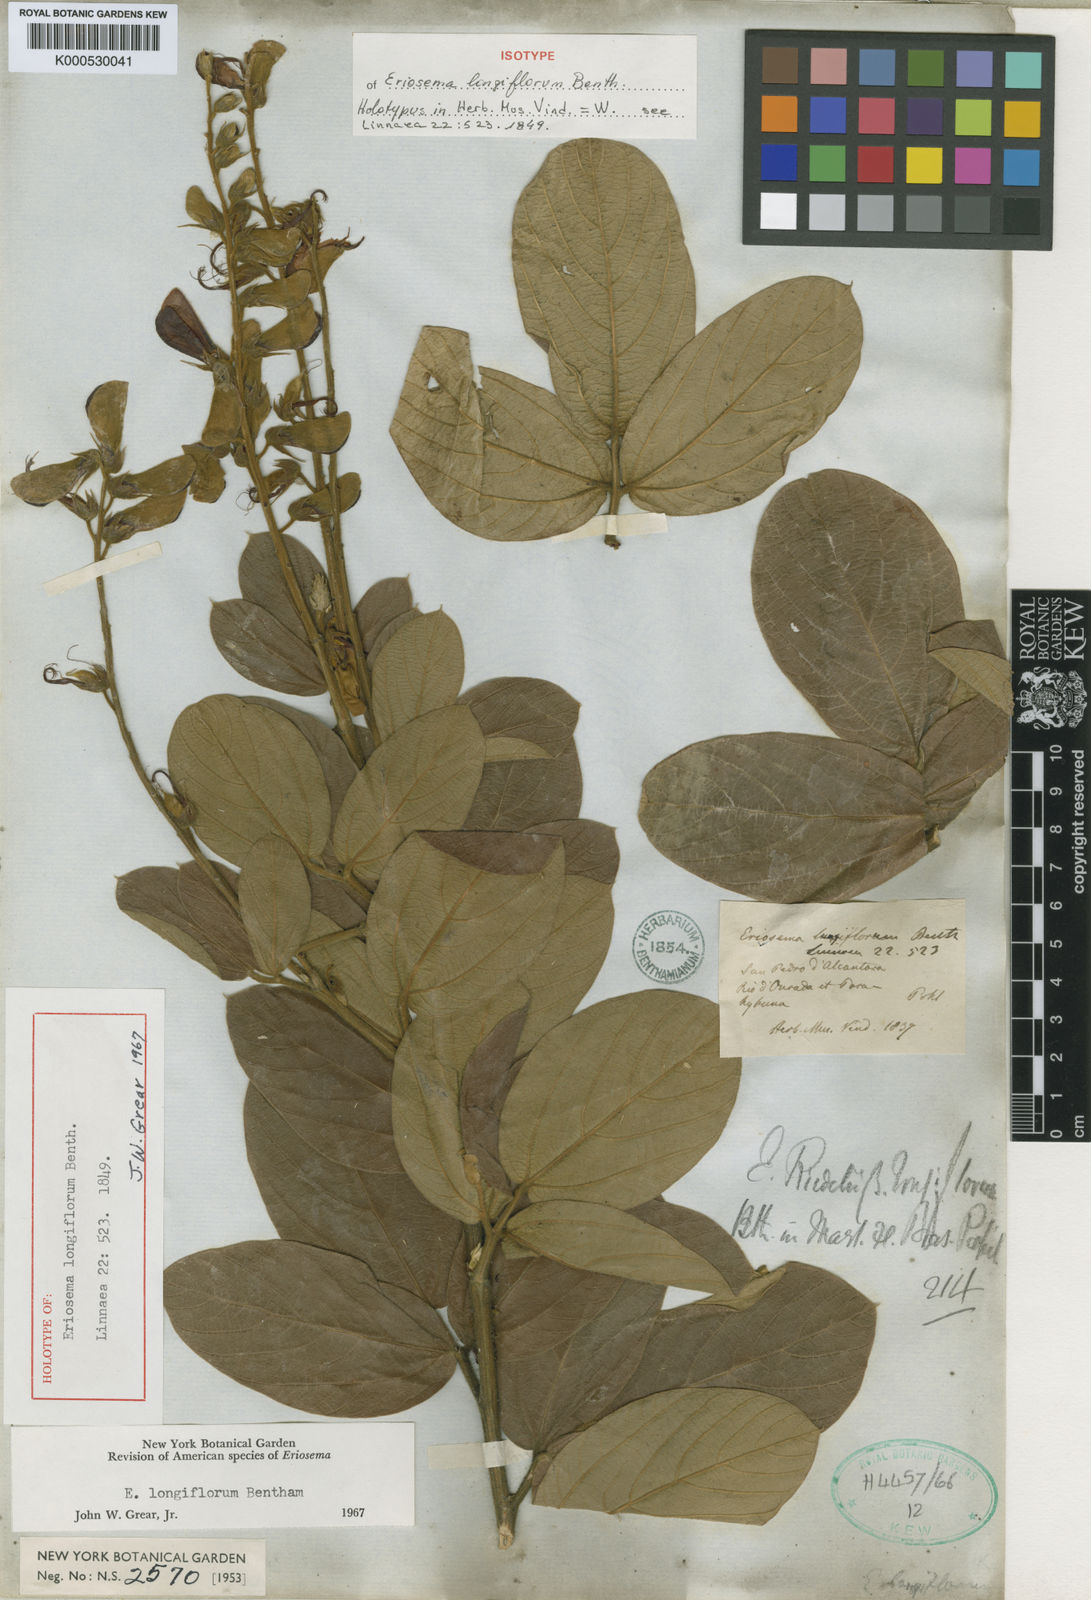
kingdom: Plantae
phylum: Tracheophyta
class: Magnoliopsida
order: Fabales
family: Fabaceae
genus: Eriosema
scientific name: Eriosema longiflorum
